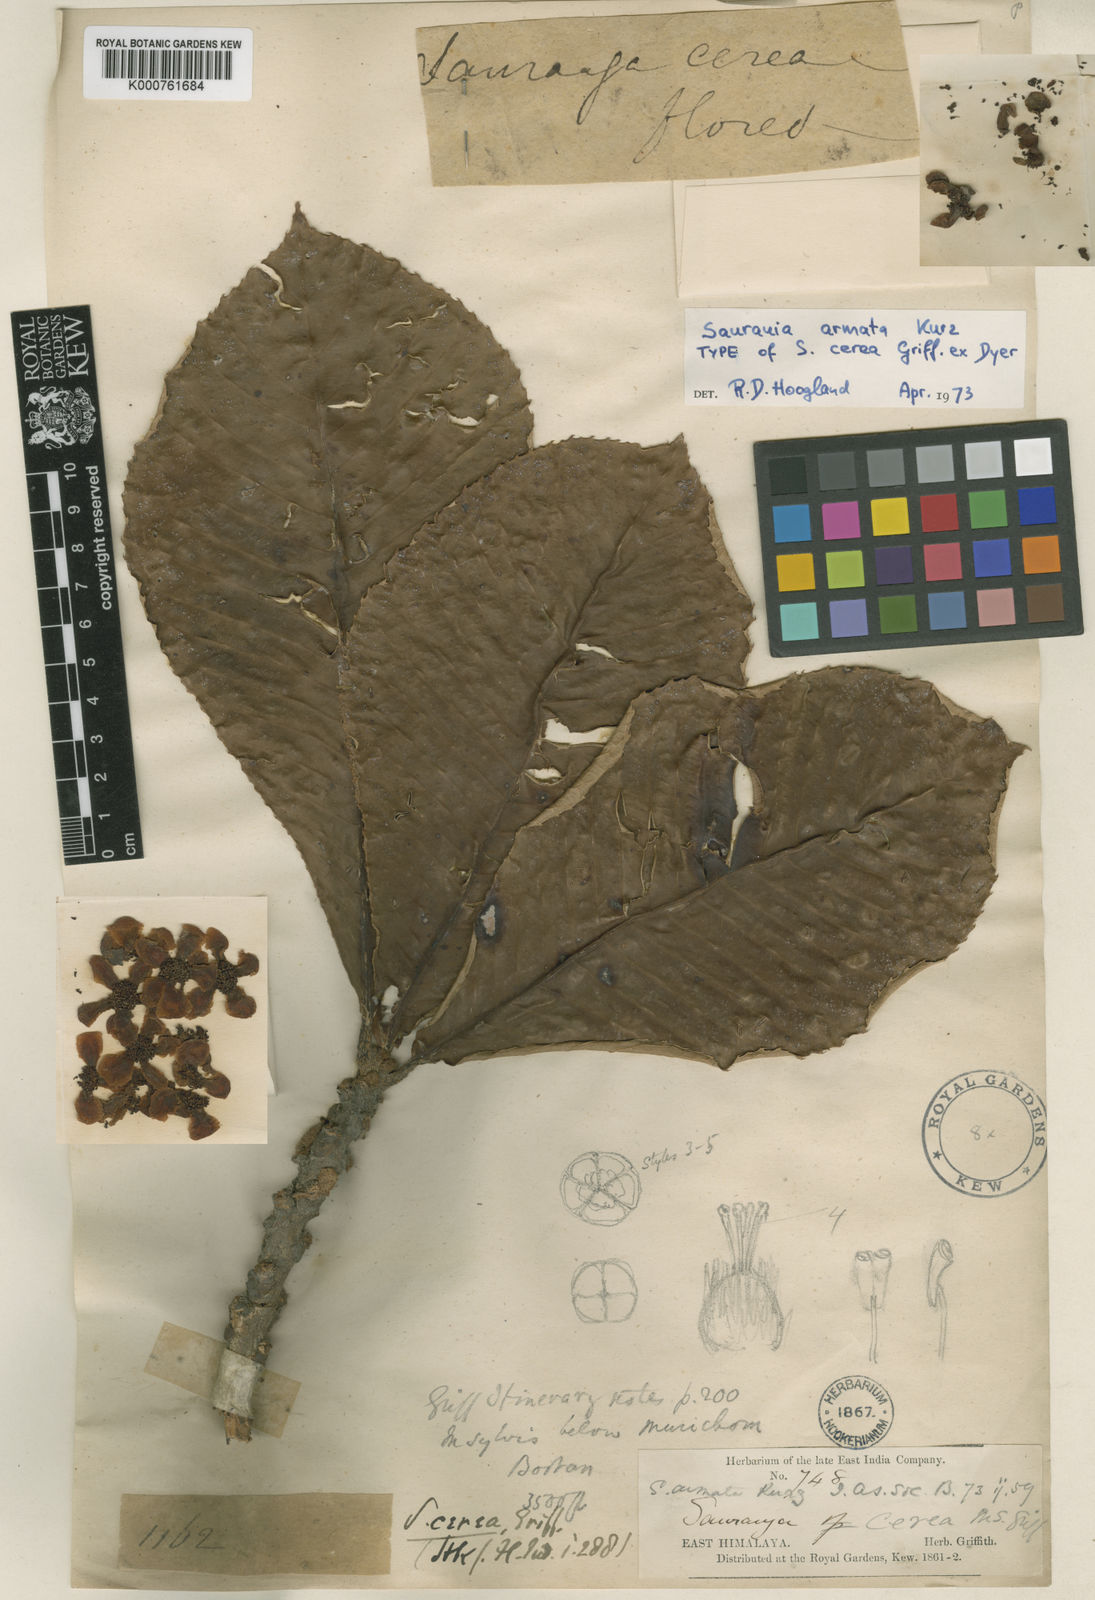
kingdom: Plantae
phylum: Tracheophyta
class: Magnoliopsida
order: Ericales
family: Actinidiaceae
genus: Saurauia
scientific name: Saurauia armata
